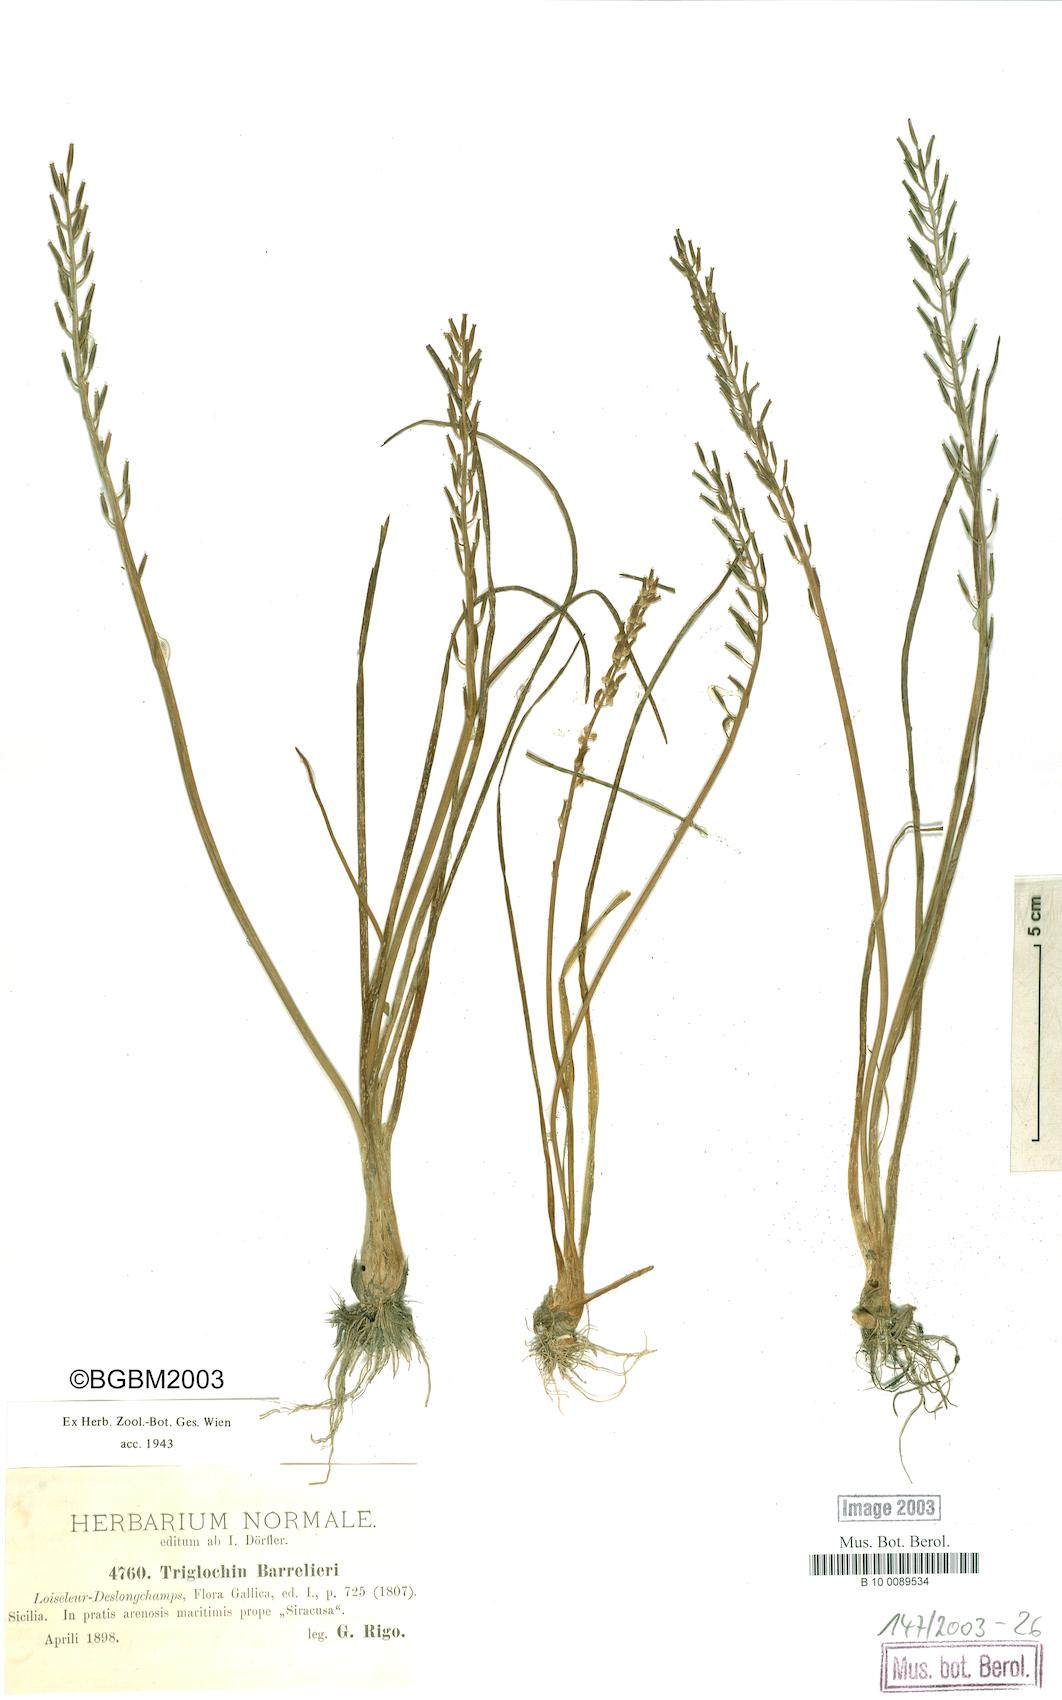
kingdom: Plantae
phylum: Tracheophyta
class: Liliopsida
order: Alismatales
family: Juncaginaceae
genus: Triglochin
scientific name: Triglochin bulbosa
